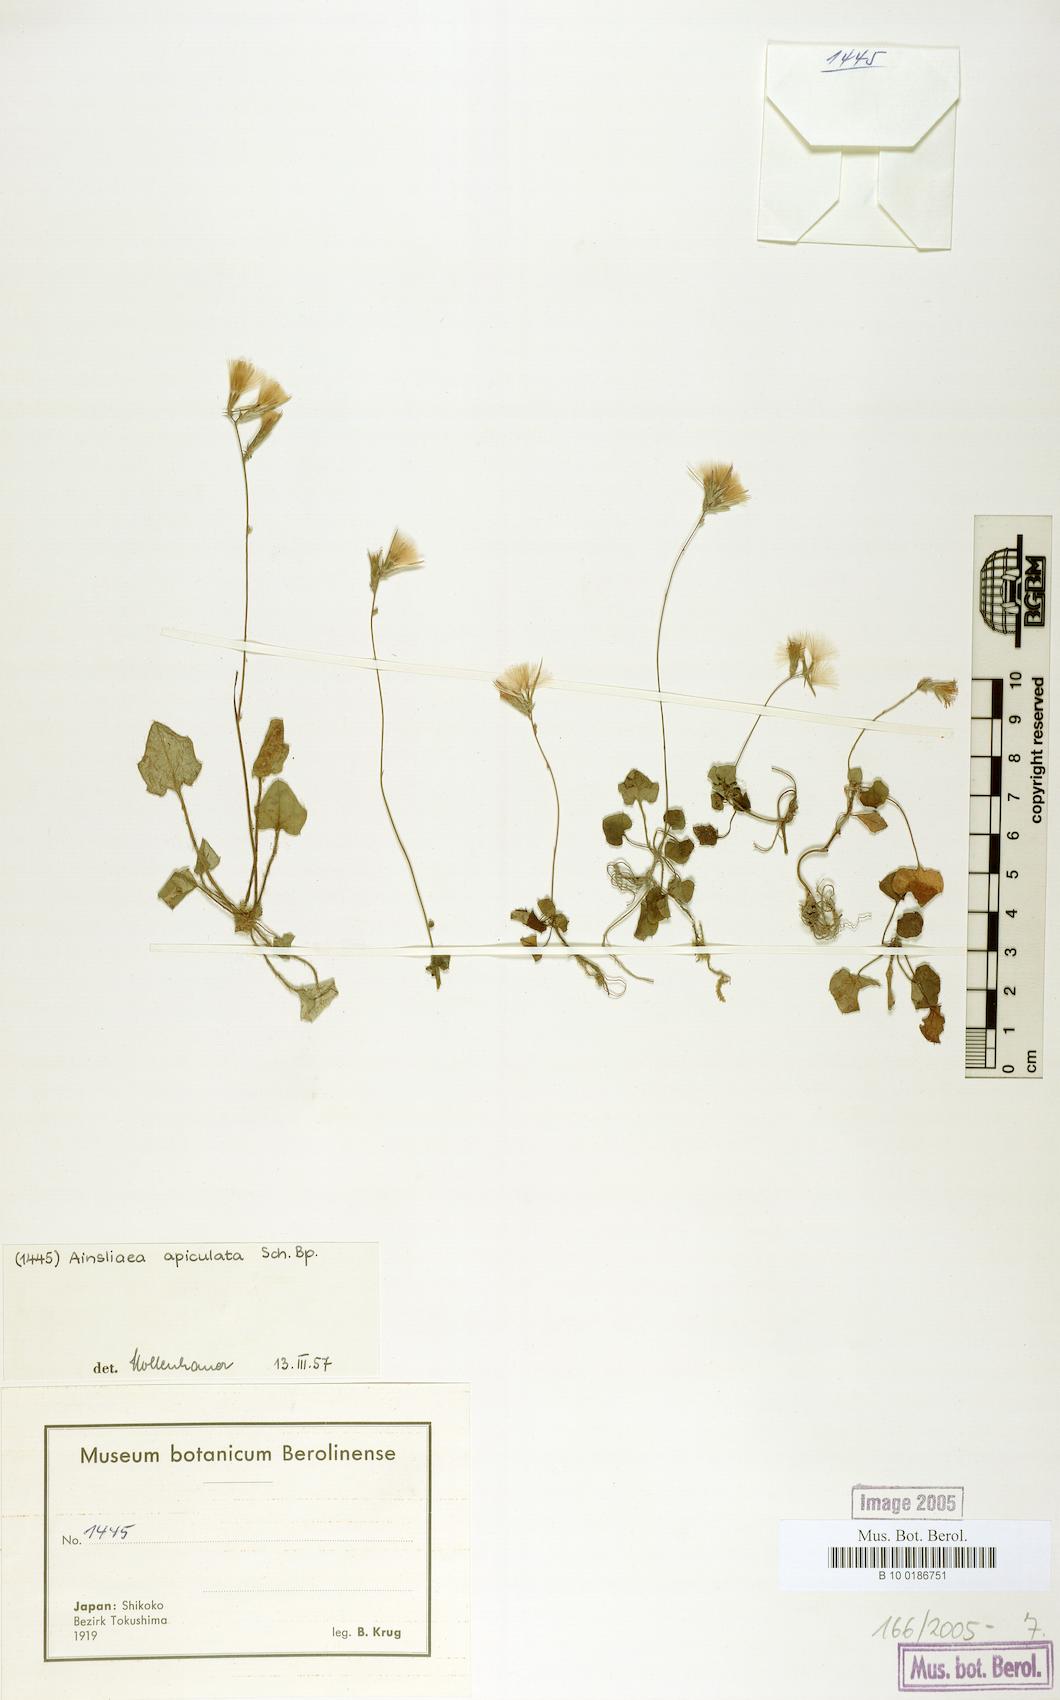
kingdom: Plantae
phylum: Tracheophyta
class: Magnoliopsida
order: Asterales
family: Asteraceae
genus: Ainsliaea
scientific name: Ainsliaea apiculata
